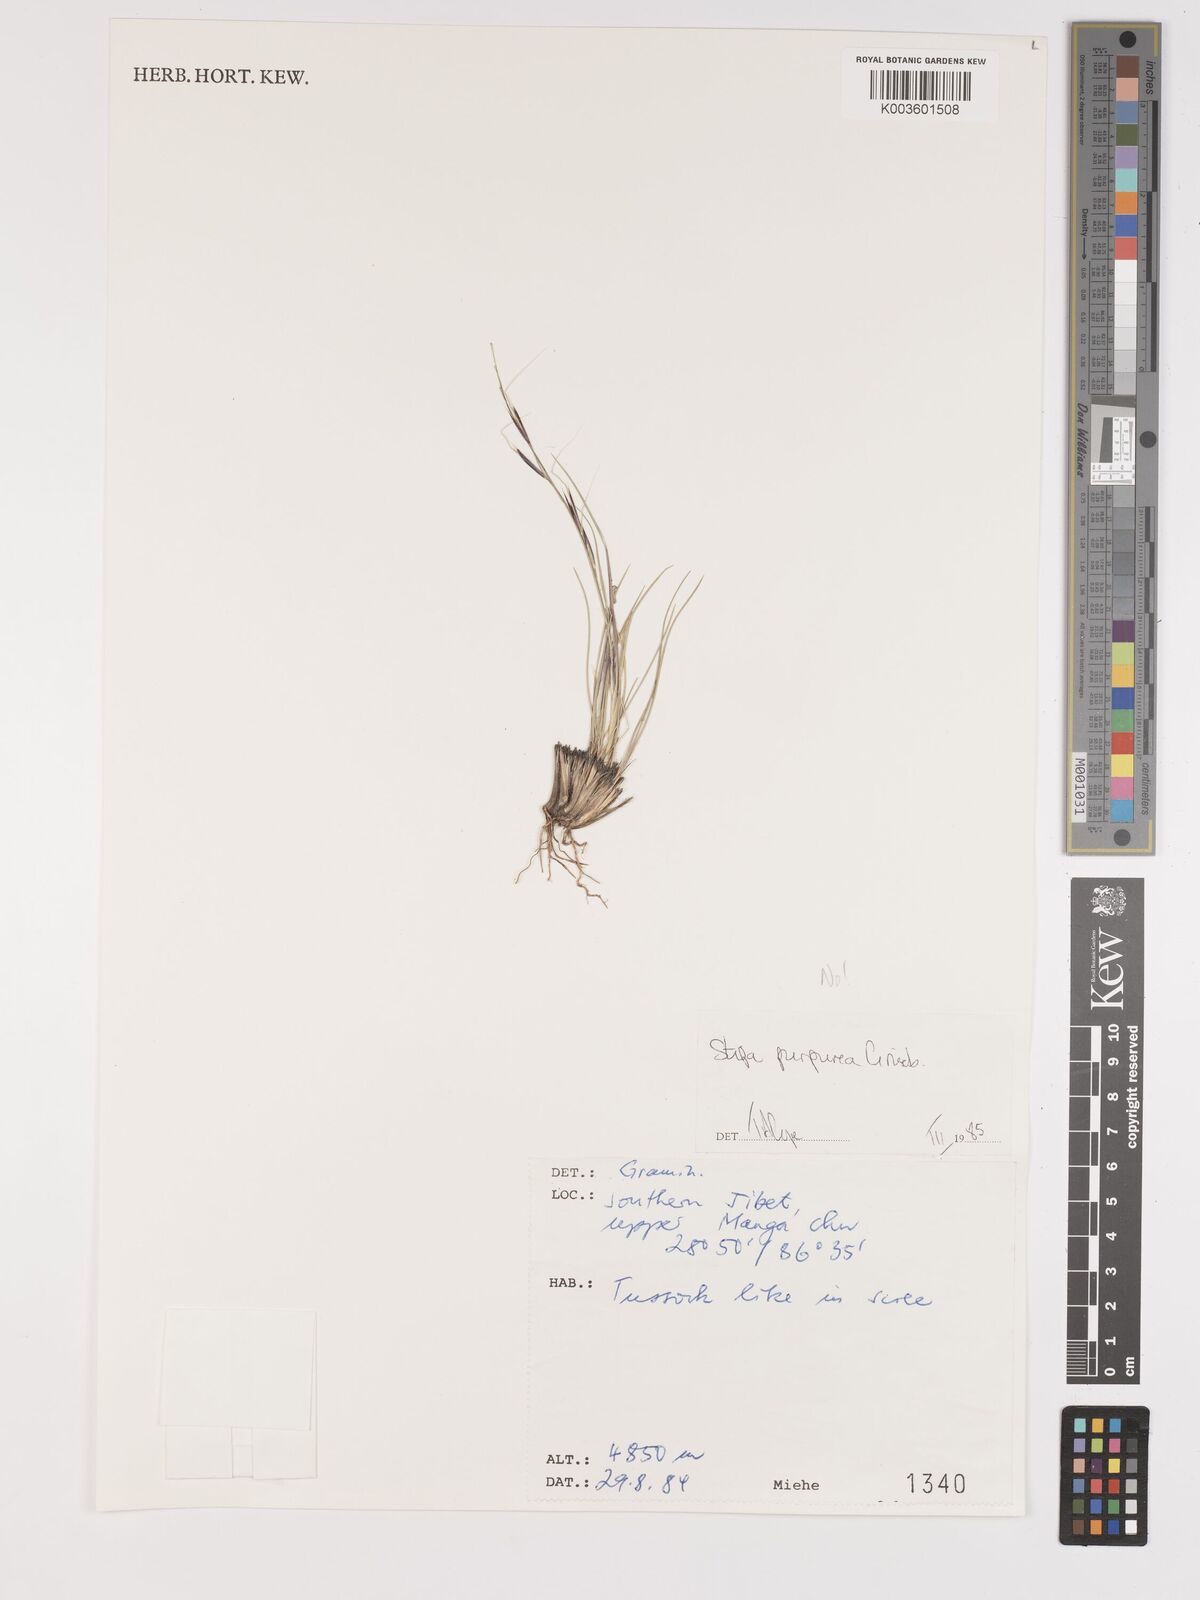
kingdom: Plantae
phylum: Tracheophyta
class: Liliopsida
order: Poales
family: Poaceae
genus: Stipa
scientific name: Stipa
